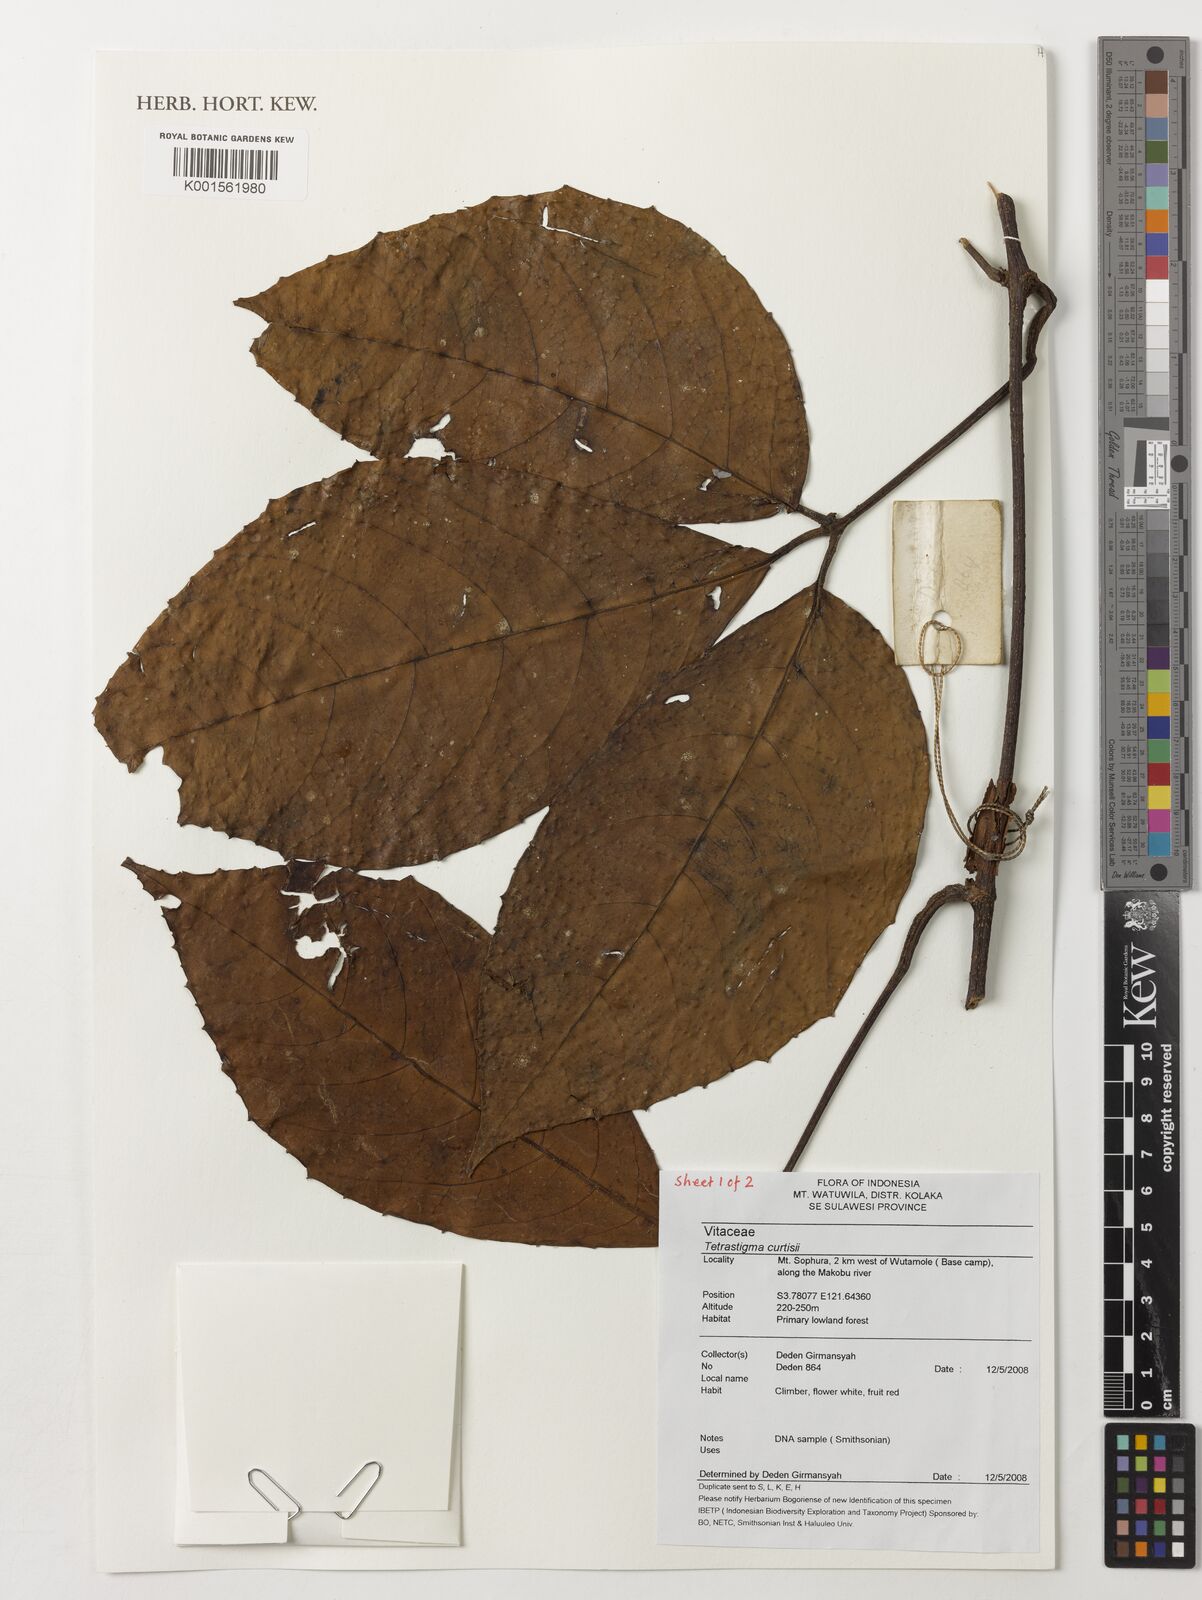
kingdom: Plantae
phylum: Tracheophyta
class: Magnoliopsida
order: Vitales
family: Vitaceae
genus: Tetrastigma
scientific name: Tetrastigma curtisii
